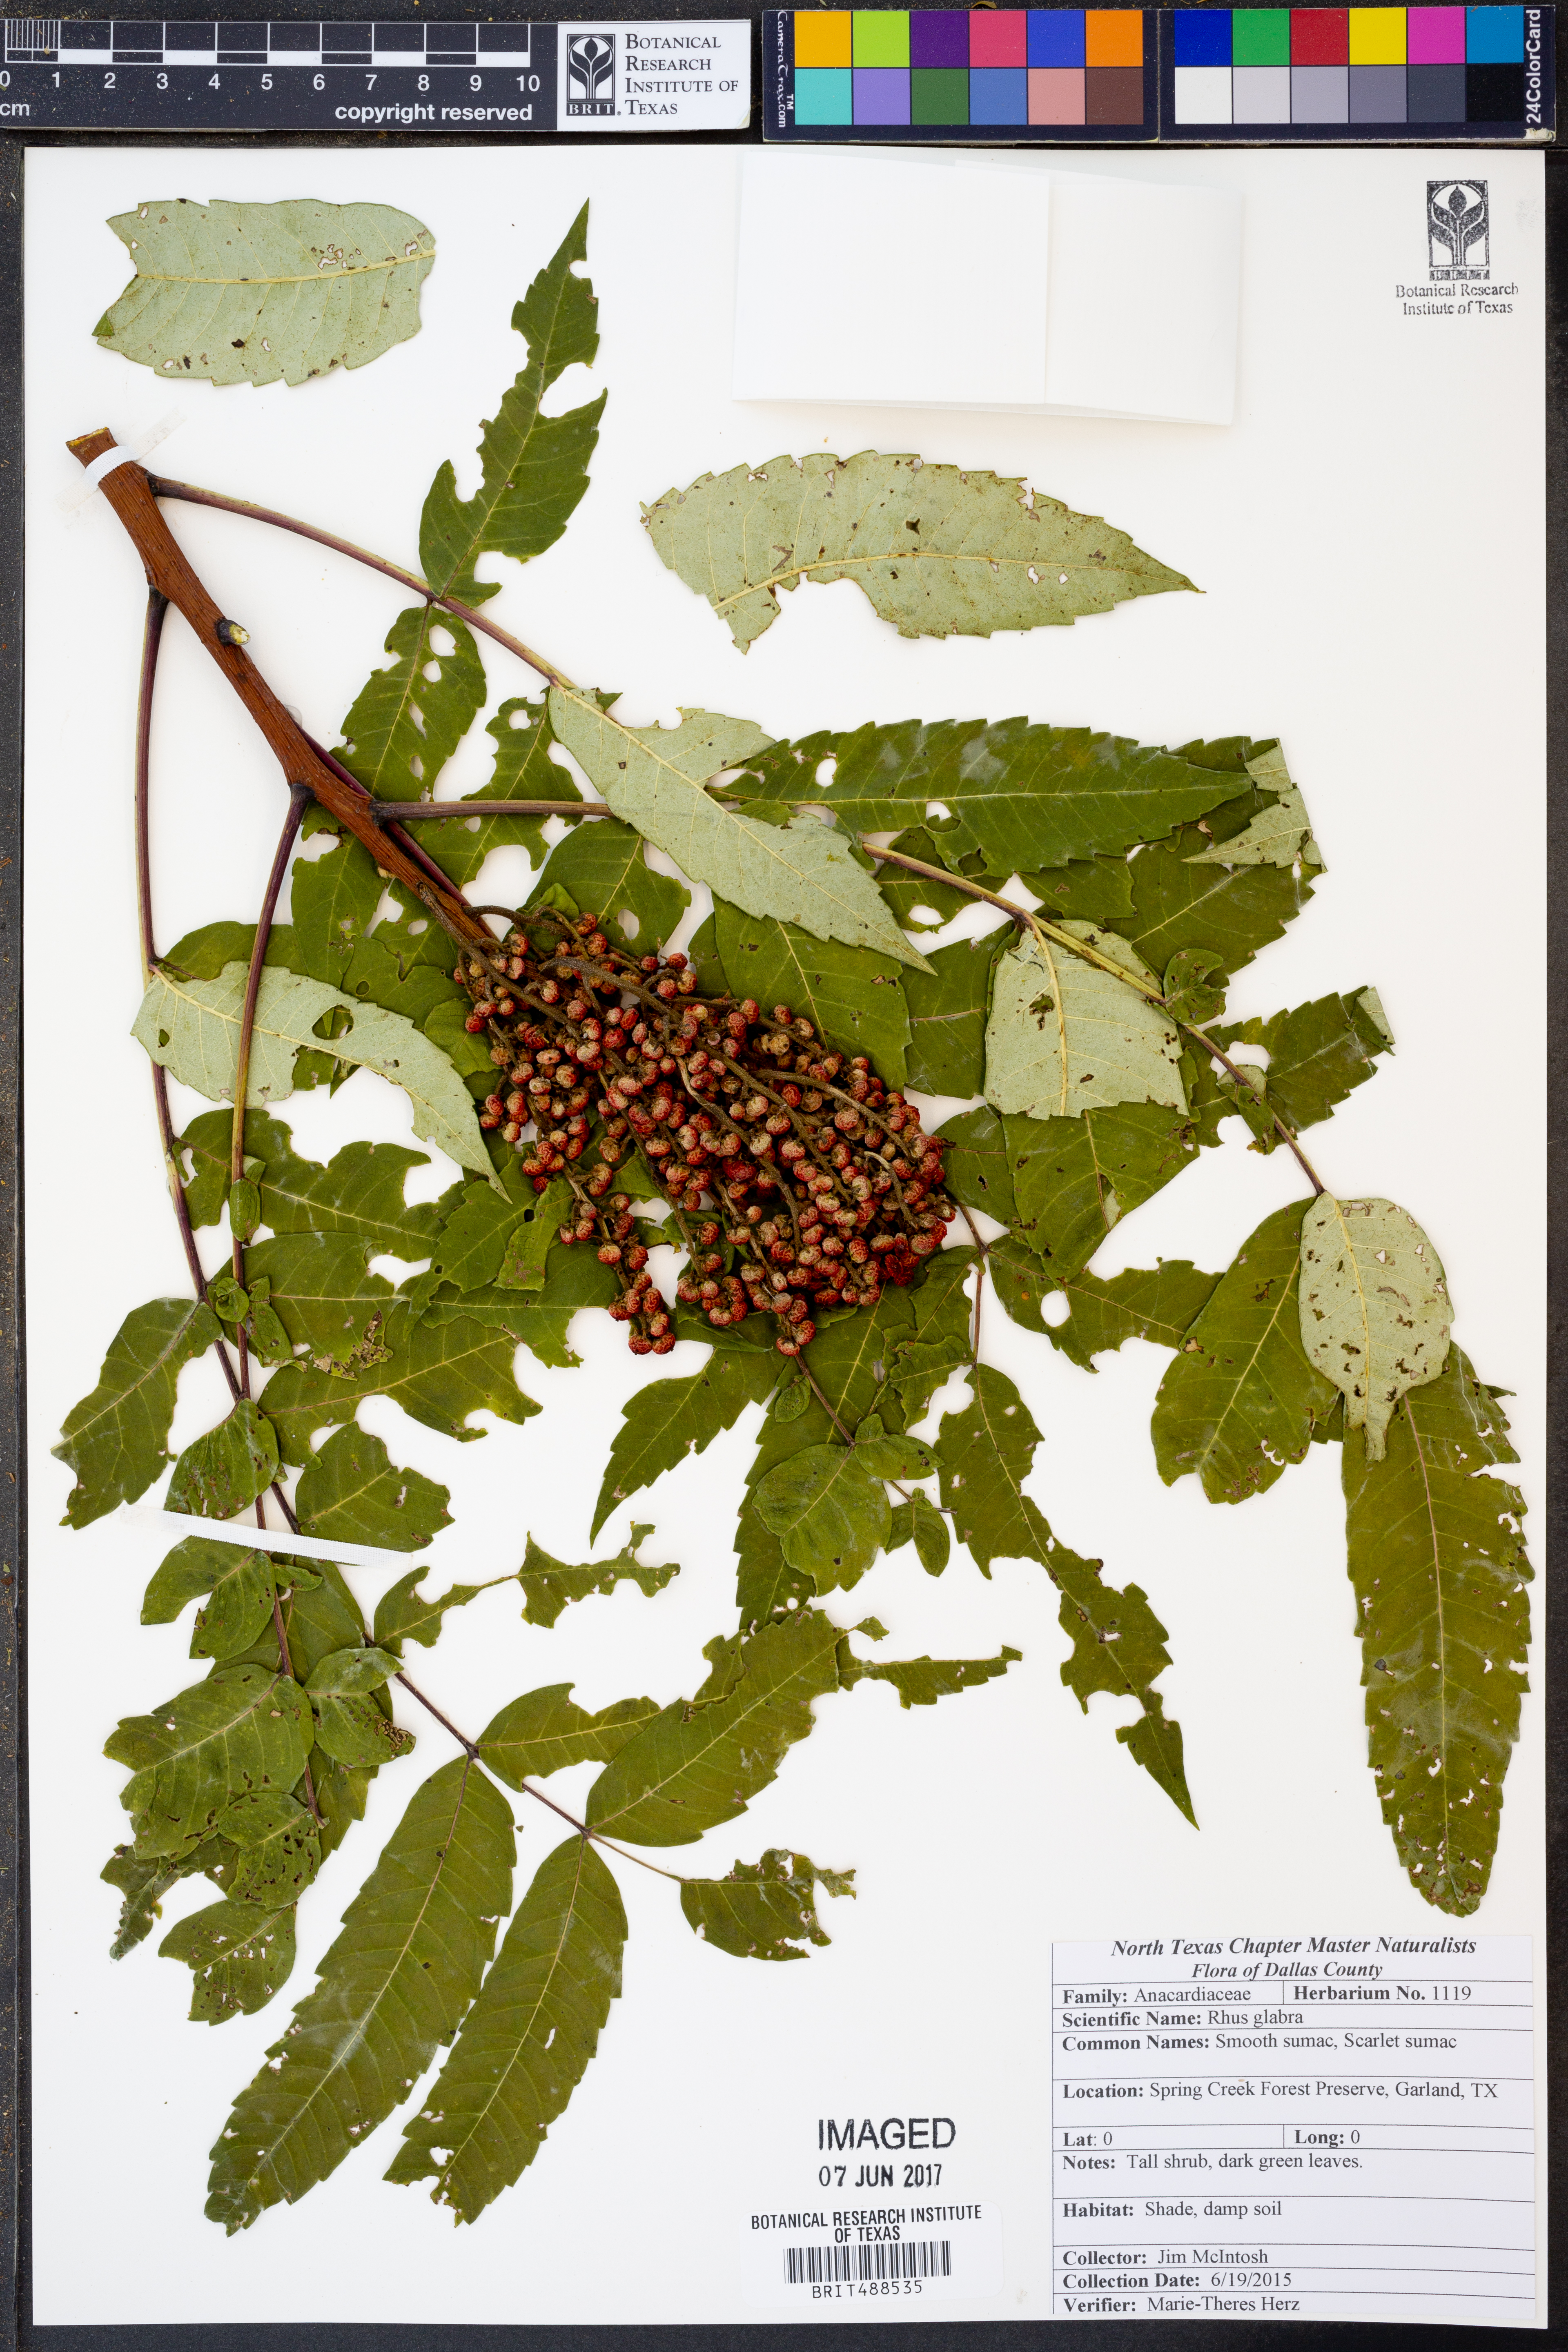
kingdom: Plantae
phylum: Tracheophyta
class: Magnoliopsida
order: Sapindales
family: Anacardiaceae
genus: Rhus
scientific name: Rhus glabra
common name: Scarlet sumac
